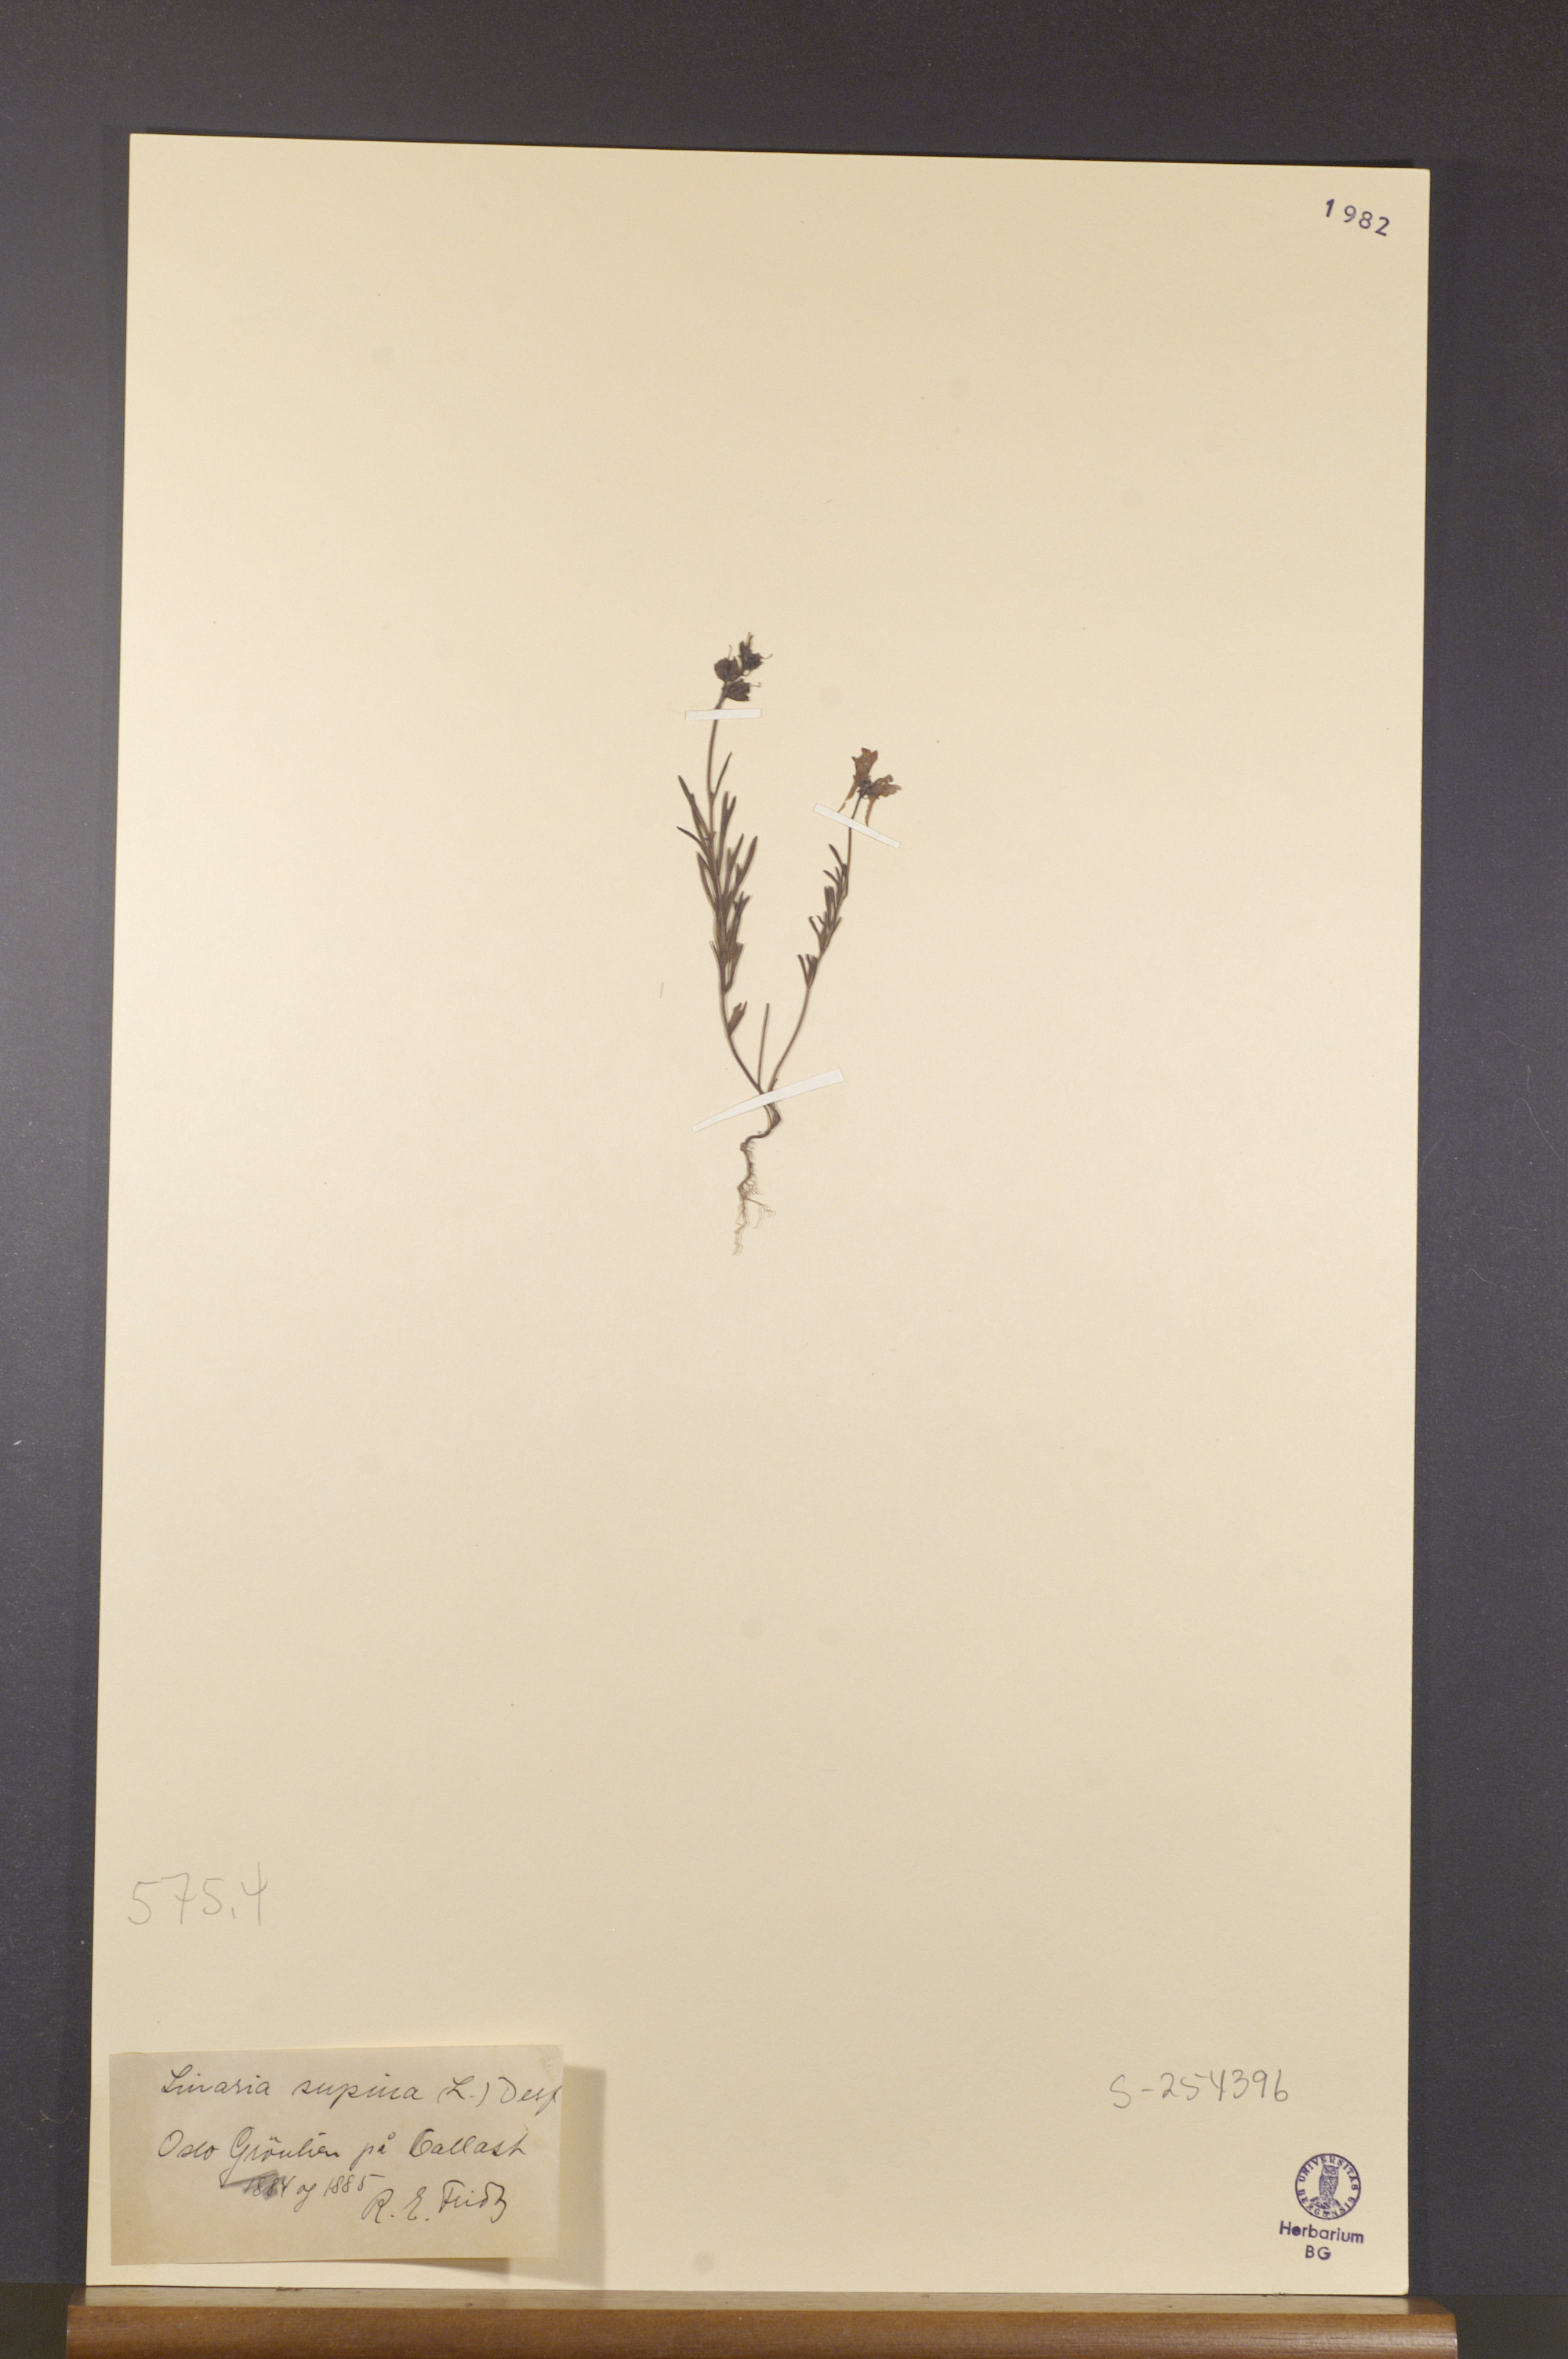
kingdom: Plantae
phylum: Tracheophyta
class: Magnoliopsida
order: Lamiales
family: Plantaginaceae
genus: Linaria
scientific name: Linaria supina
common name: Prostrate toadflax
